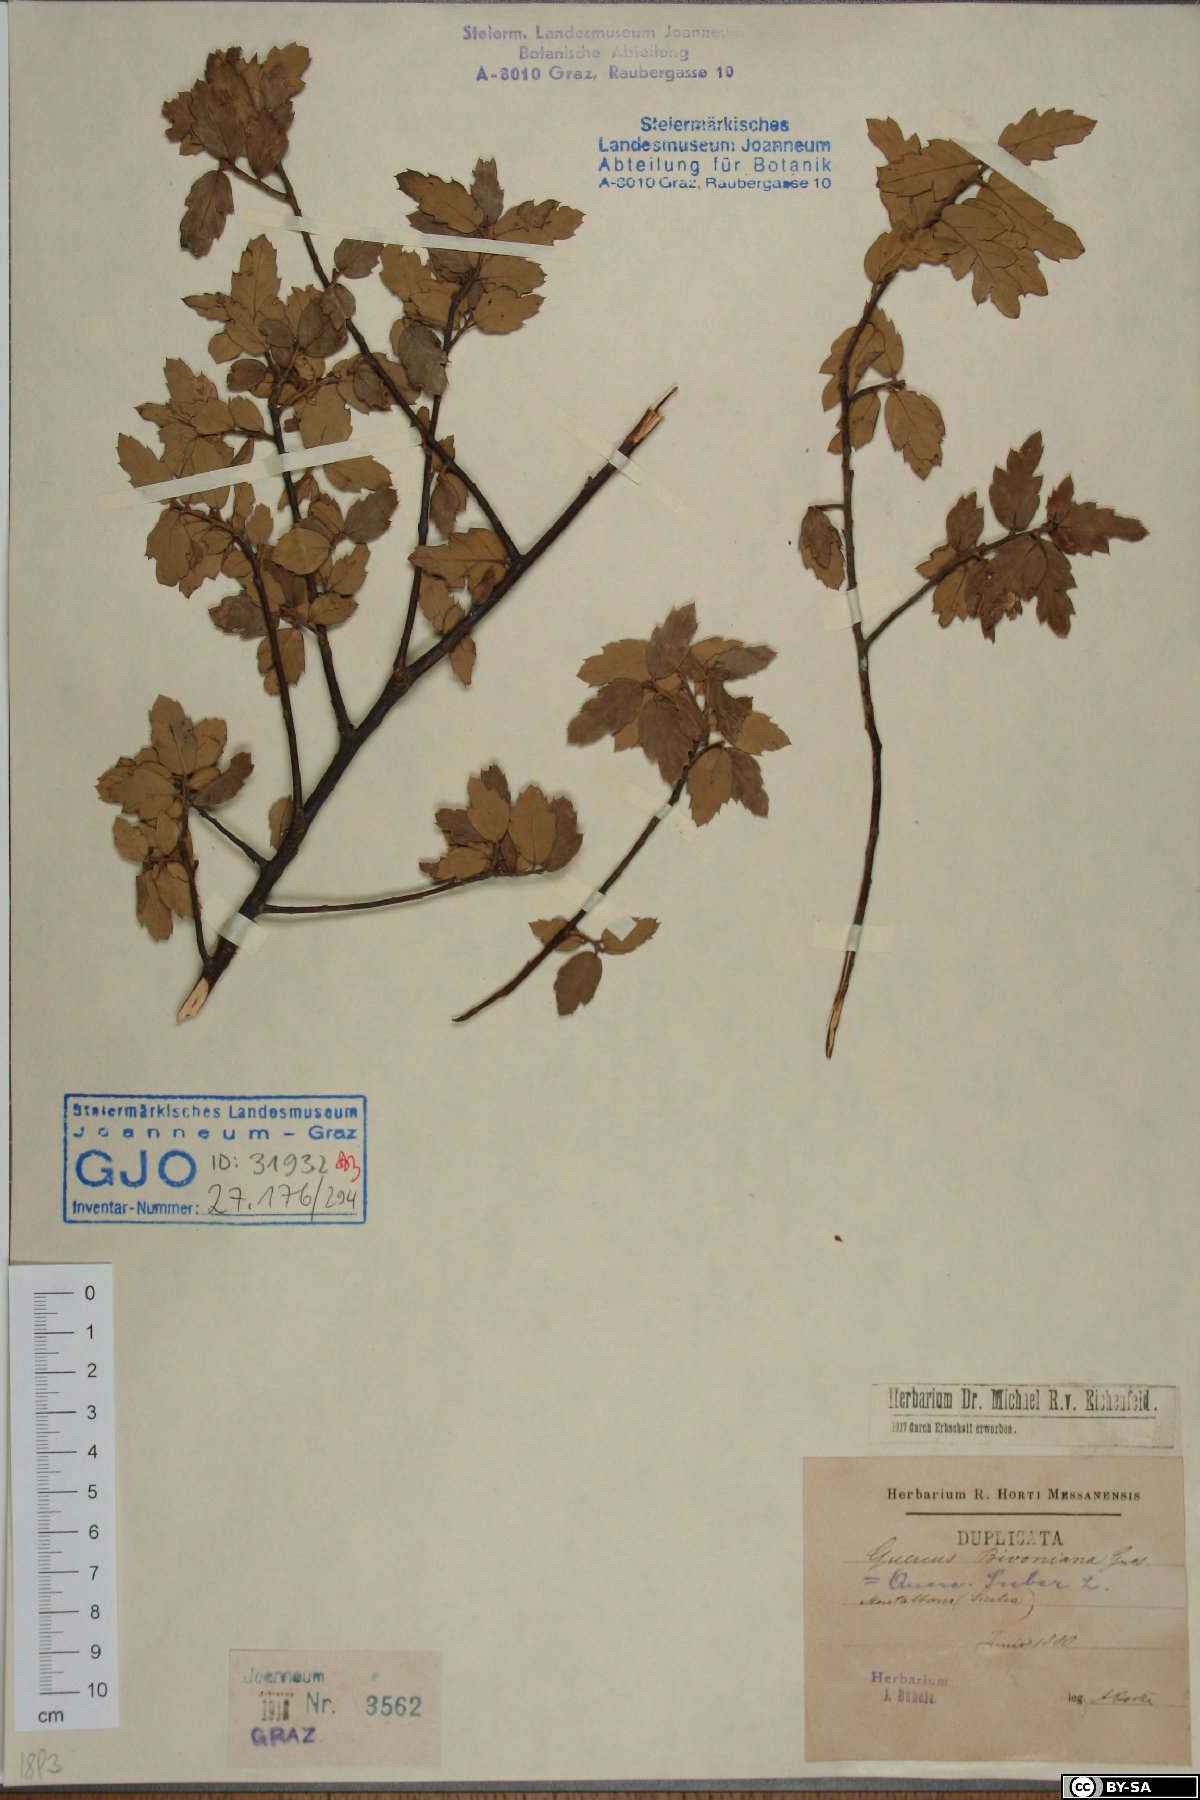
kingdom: Plantae
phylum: Tracheophyta
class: Magnoliopsida
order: Fagales
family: Fagaceae
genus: Quercus
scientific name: Quercus crenata
